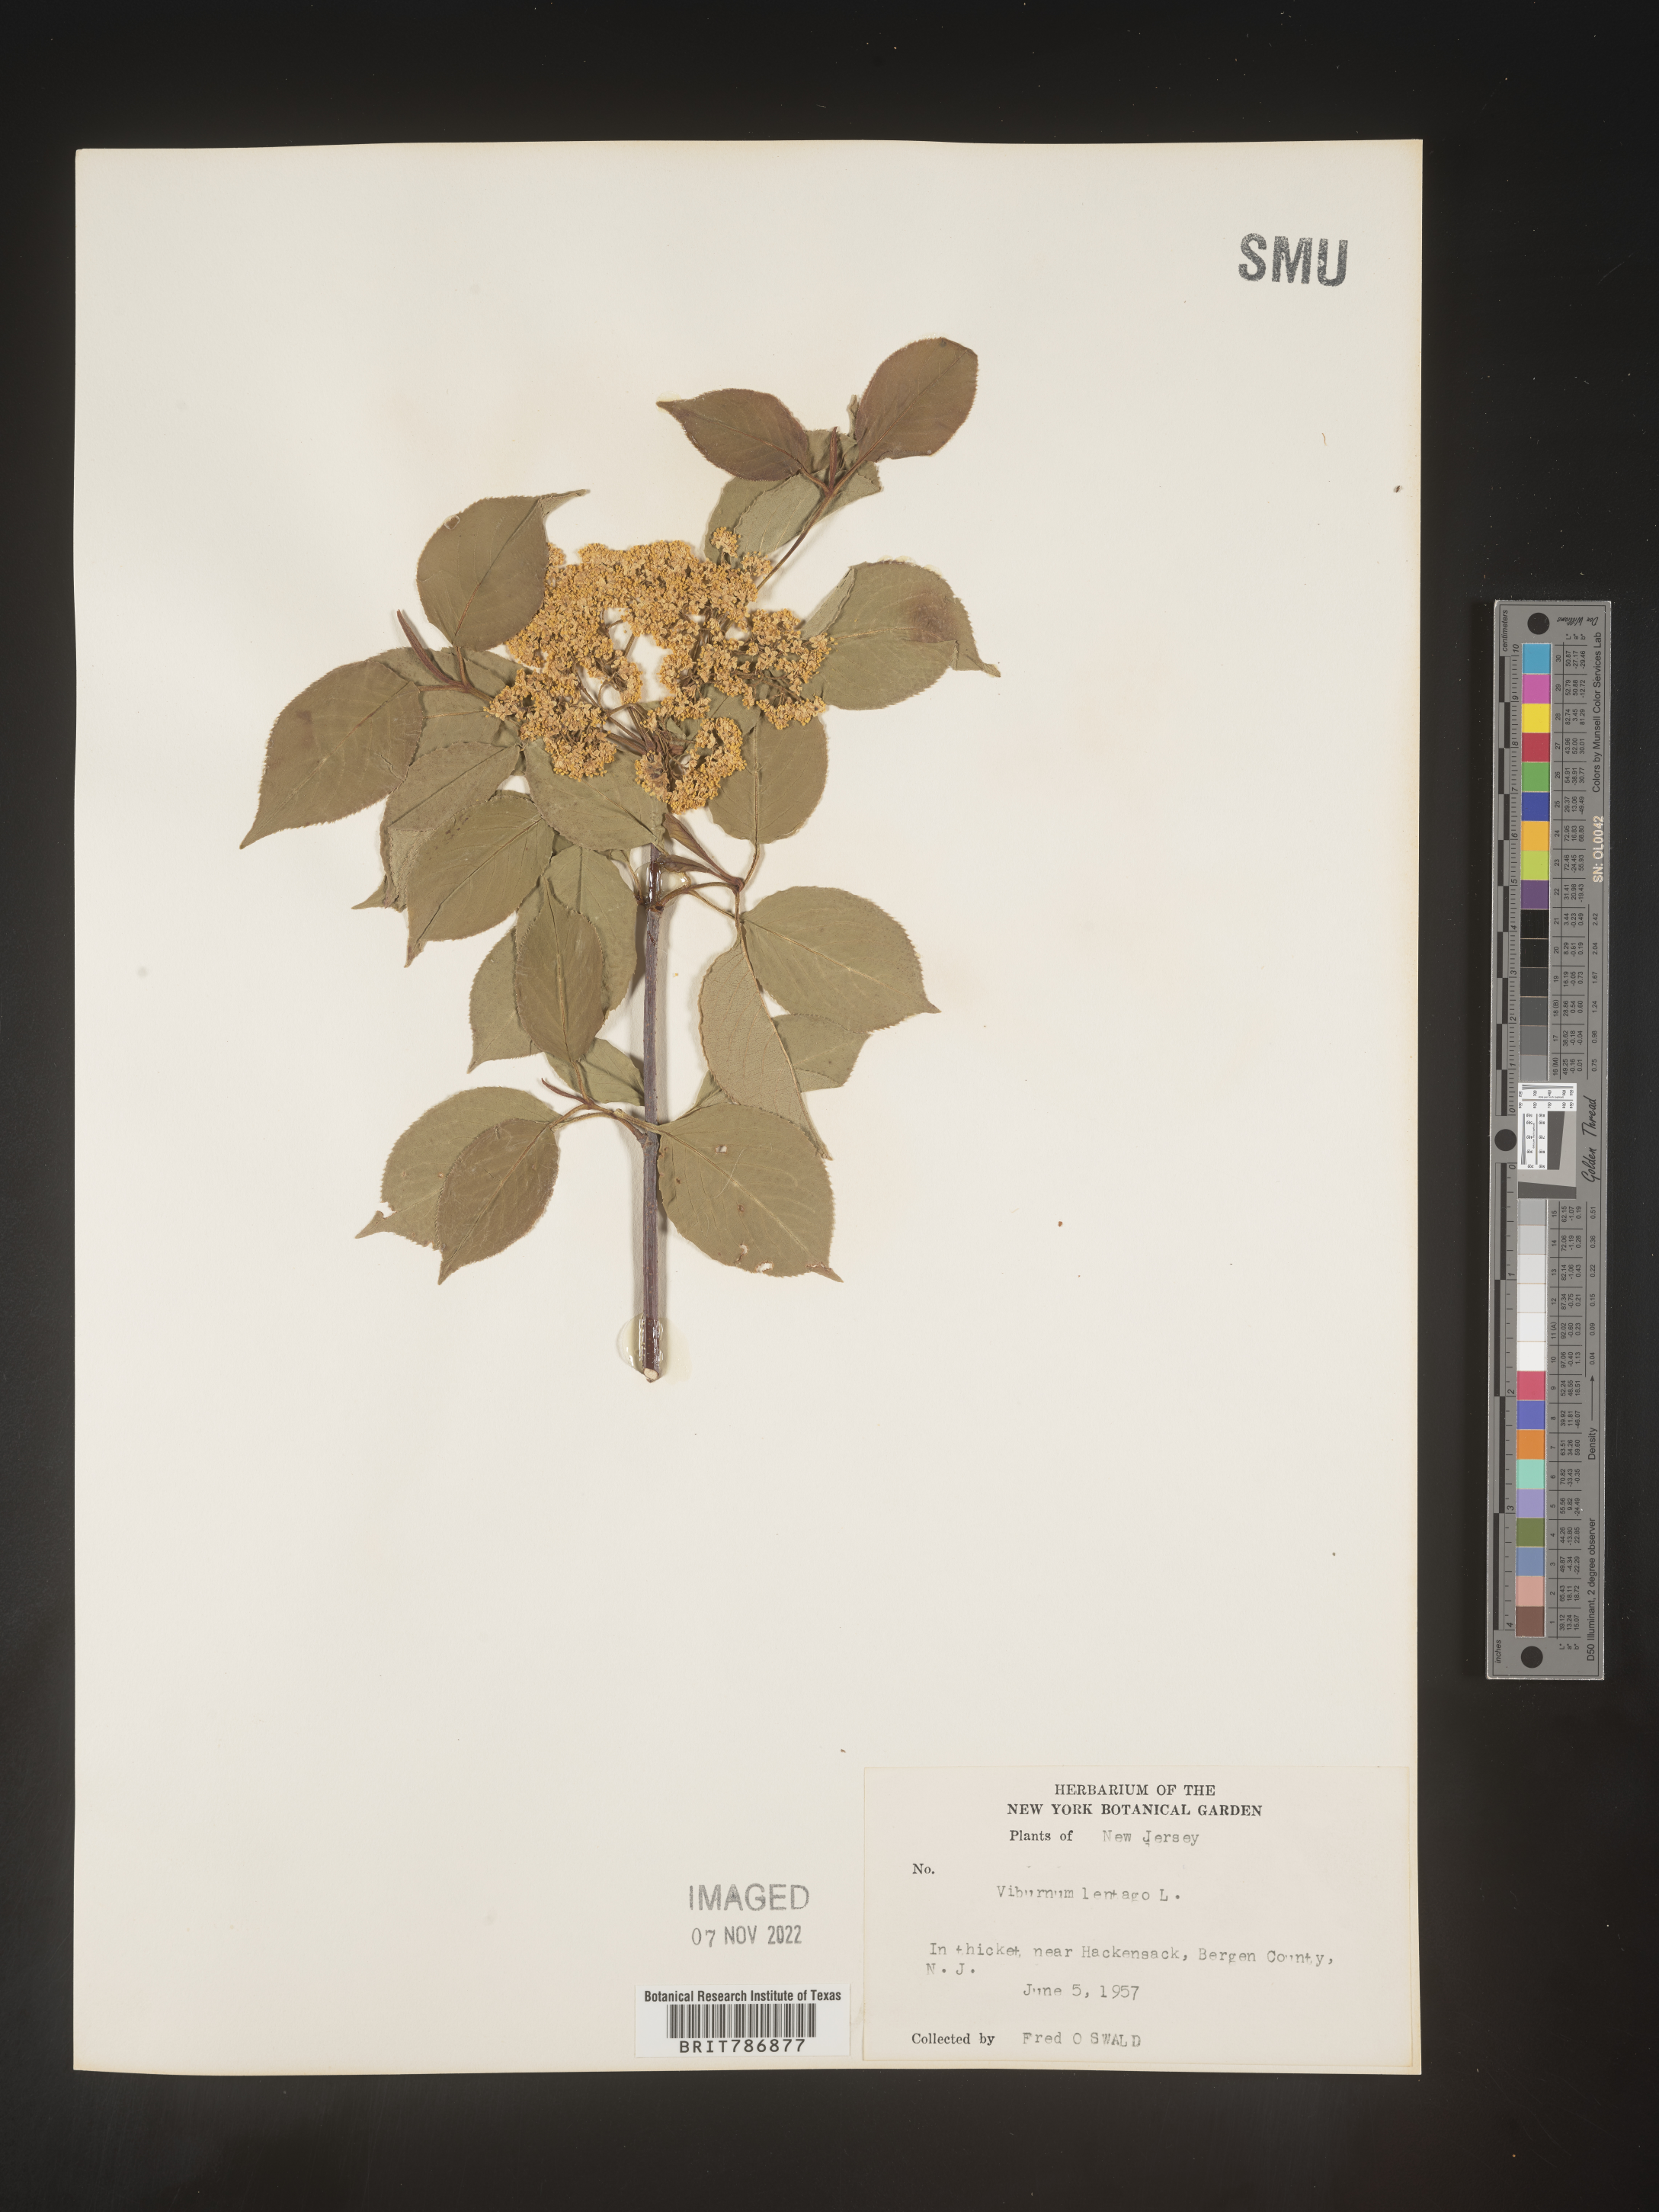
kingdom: Plantae
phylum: Tracheophyta
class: Magnoliopsida
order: Dipsacales
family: Viburnaceae
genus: Viburnum
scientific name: Viburnum lentago
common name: Black haw
